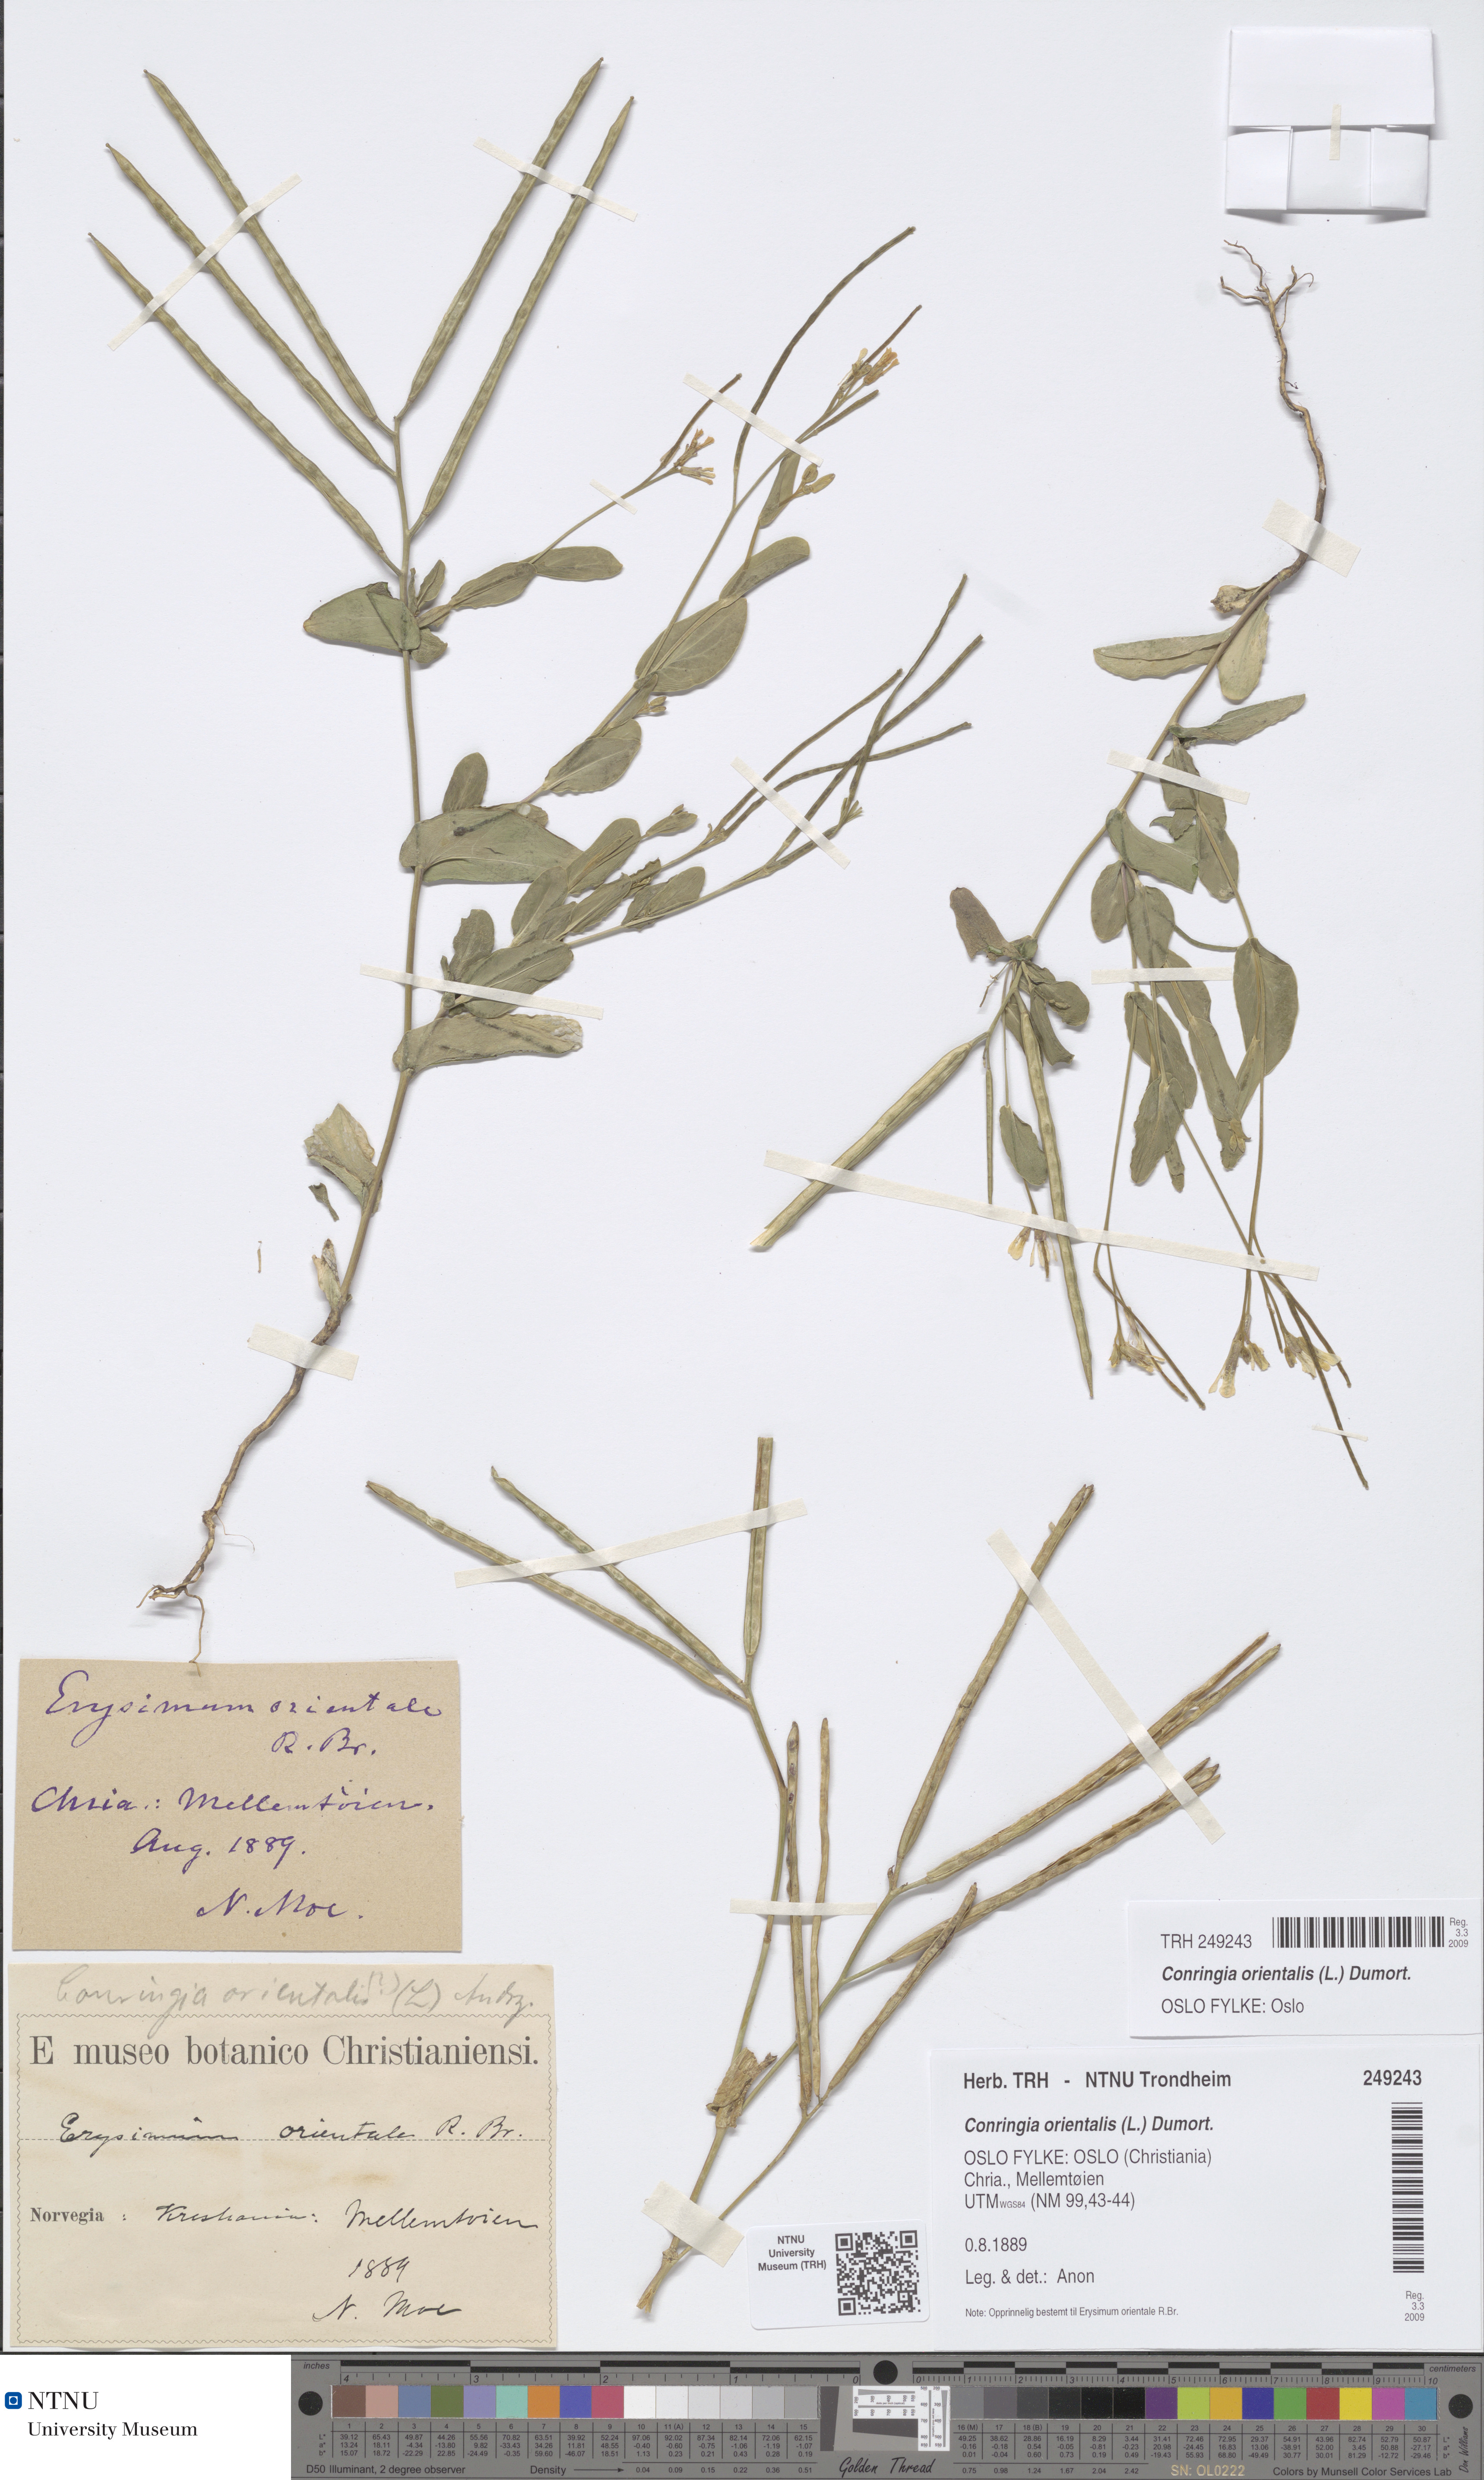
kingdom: Plantae
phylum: Tracheophyta
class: Magnoliopsida
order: Brassicales
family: Brassicaceae
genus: Conringia
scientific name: Conringia orientalis
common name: Hare's ear mustard
